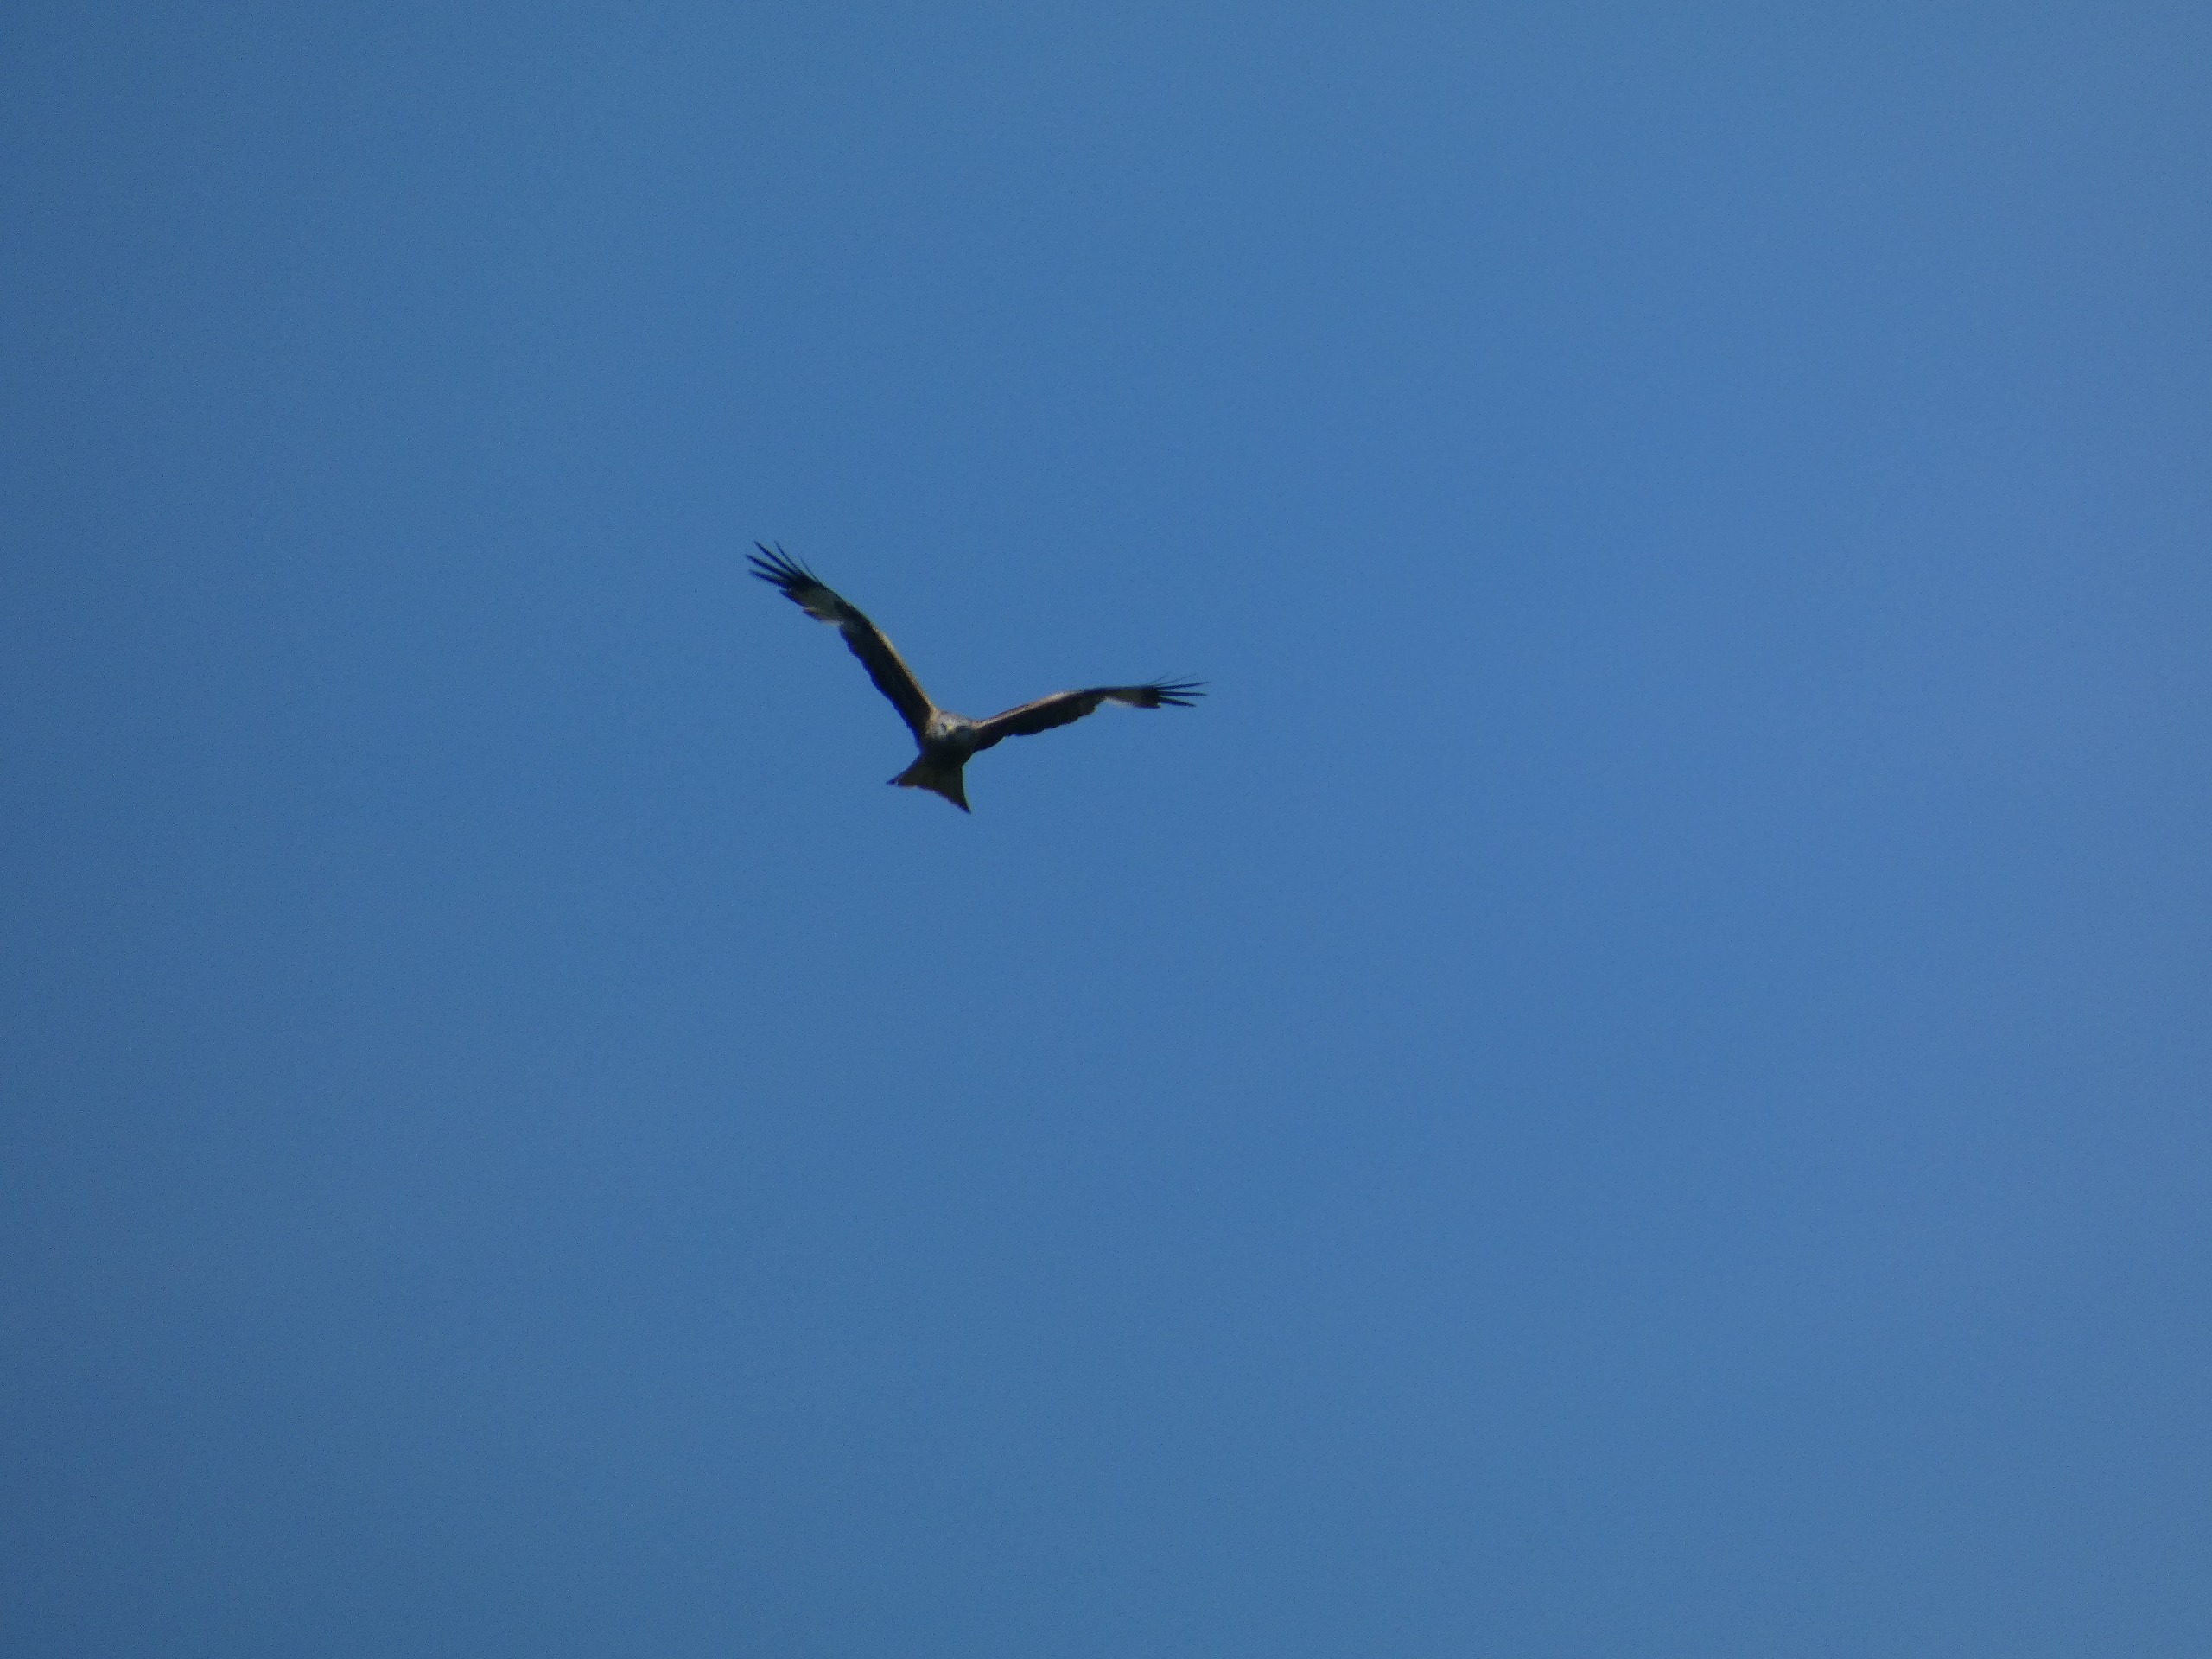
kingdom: Animalia
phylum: Chordata
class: Aves
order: Accipitriformes
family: Accipitridae
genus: Milvus
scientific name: Milvus milvus
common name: Rød glente
